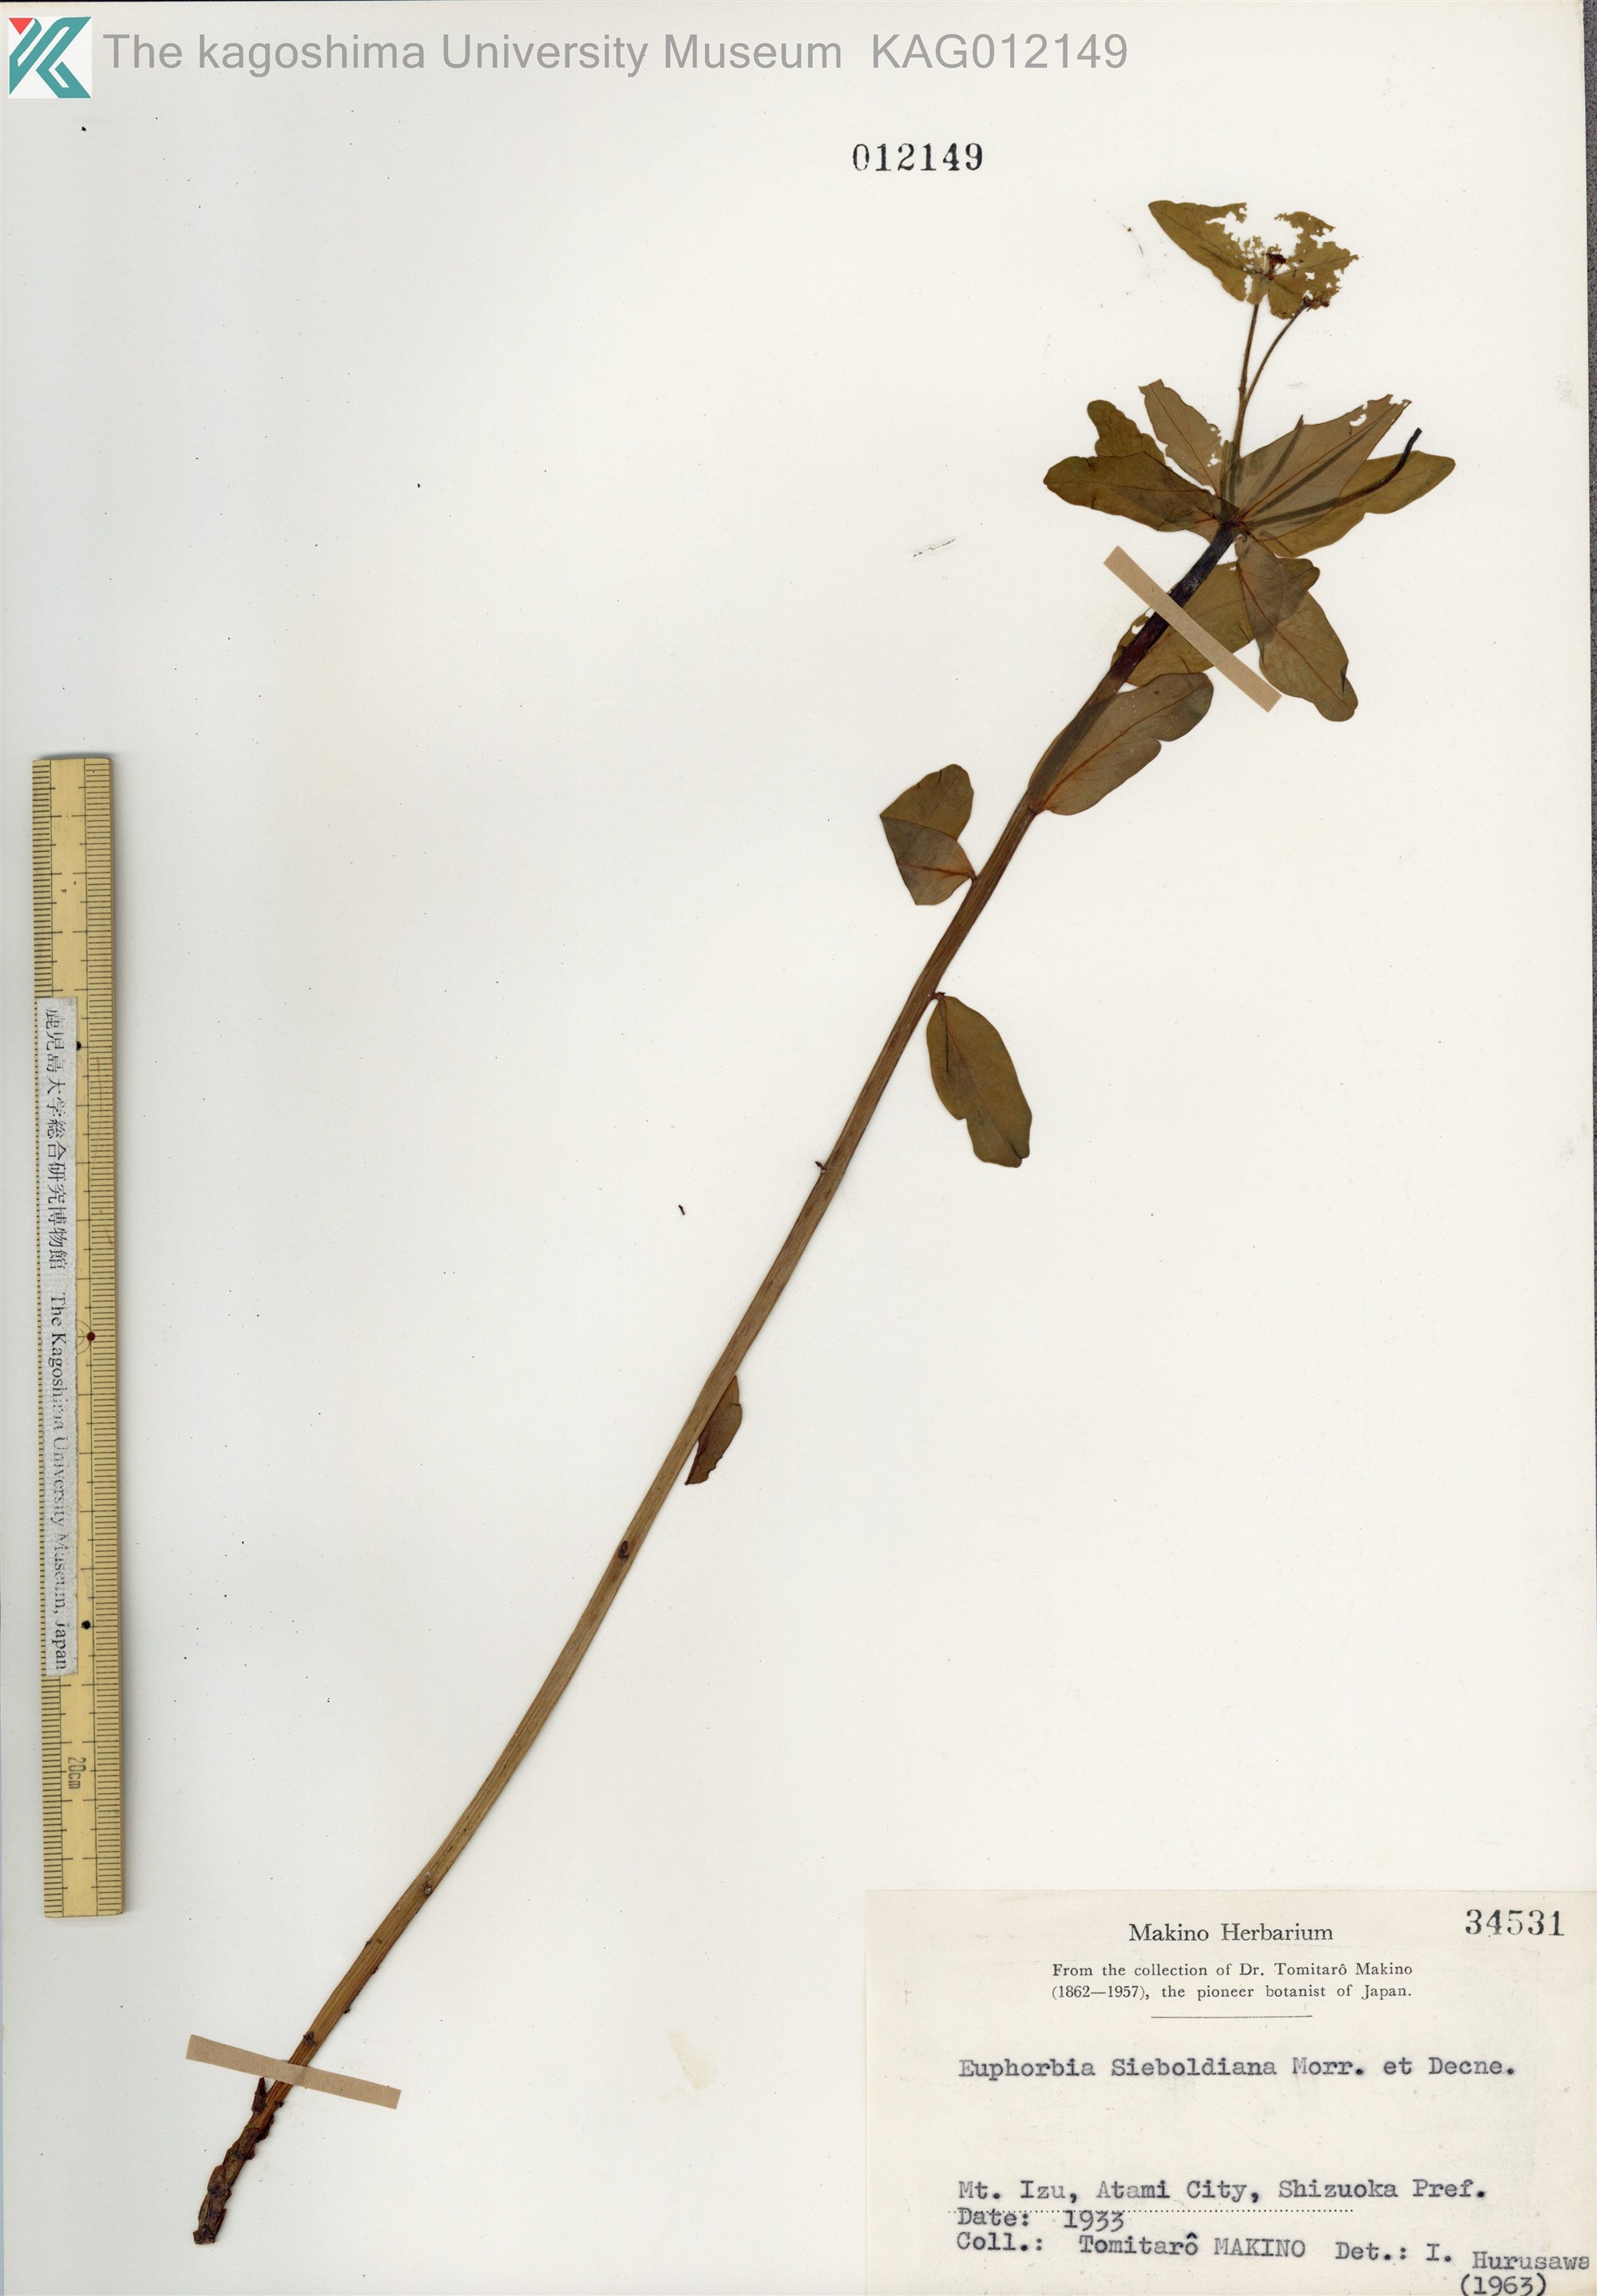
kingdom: Plantae
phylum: Tracheophyta
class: Magnoliopsida
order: Malpighiales
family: Euphorbiaceae
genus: Euphorbia
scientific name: Euphorbia sieboldiana
